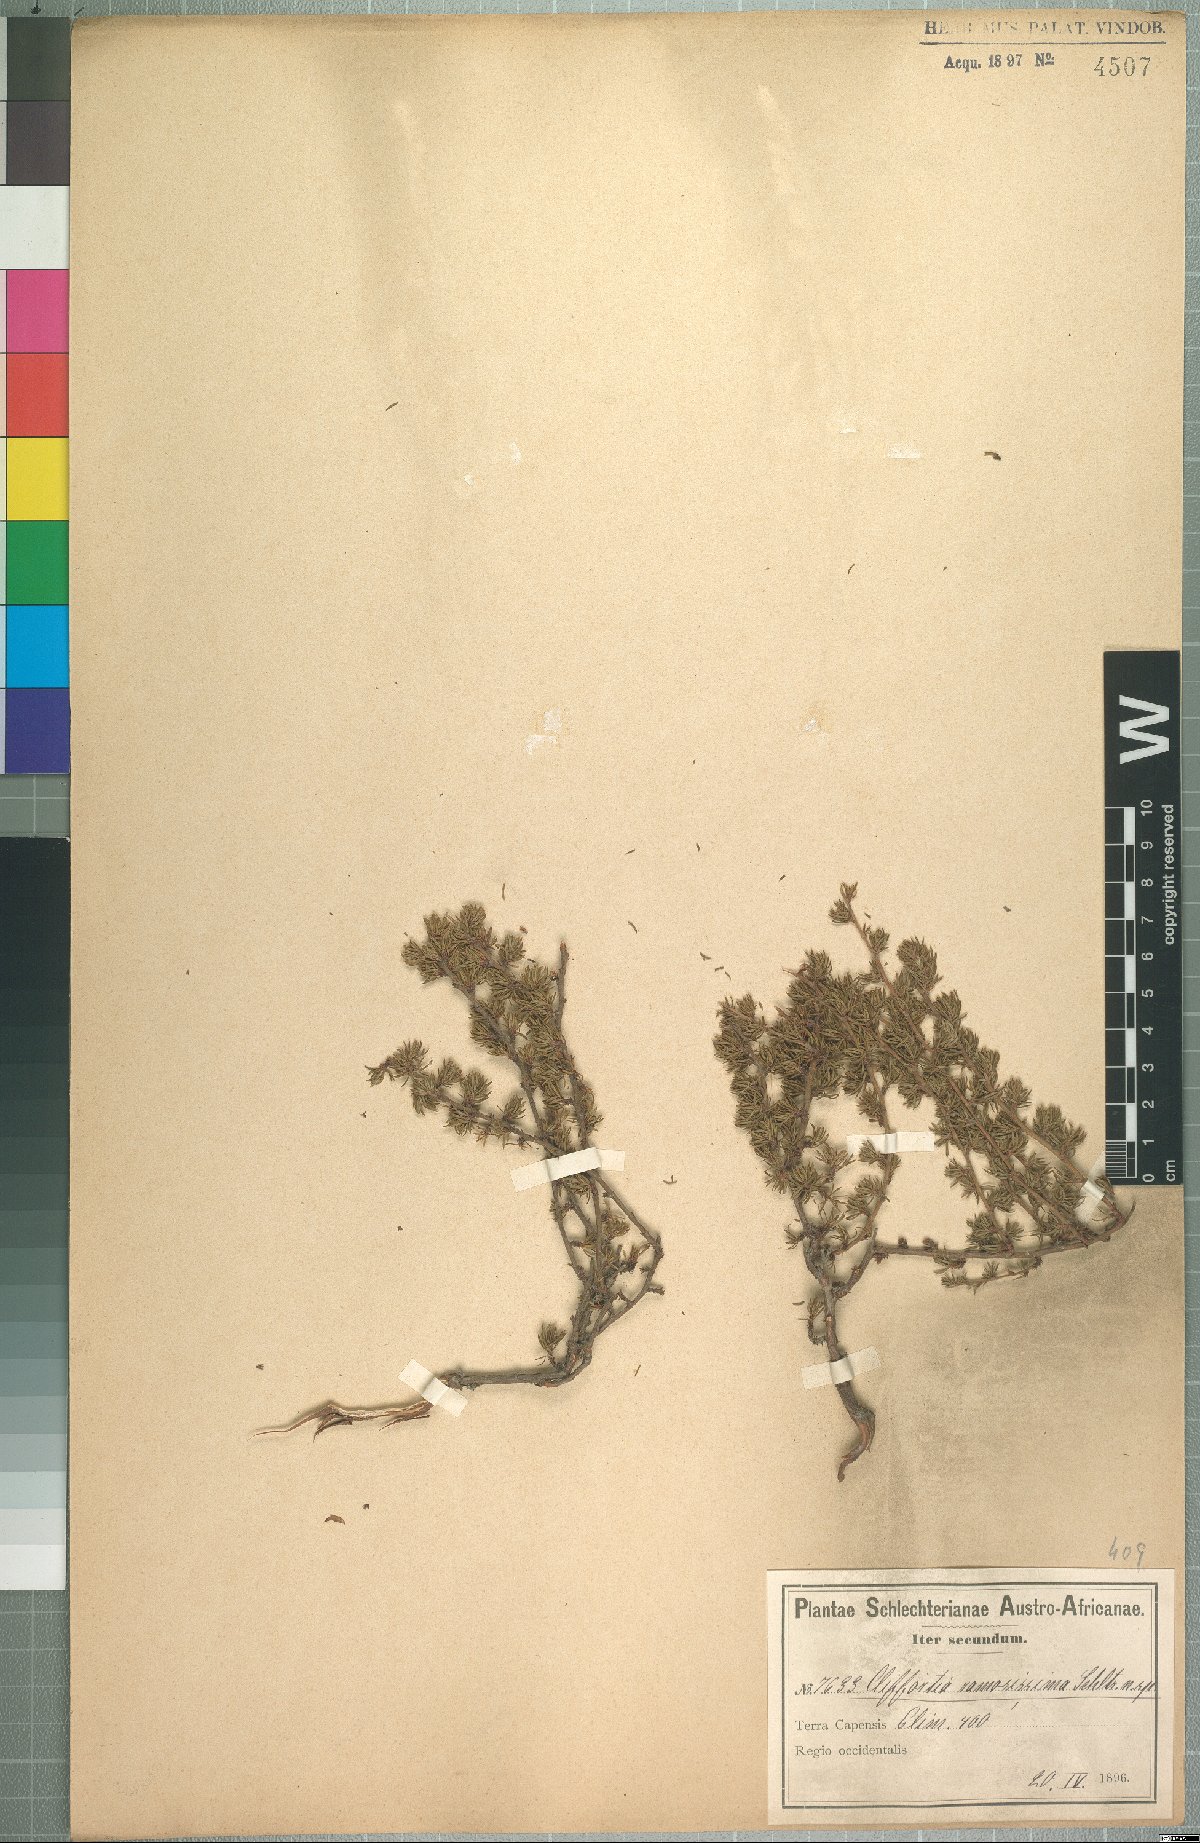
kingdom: Plantae
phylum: Tracheophyta
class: Magnoliopsida
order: Rosales
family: Rosaceae
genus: Cliffortia
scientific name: Cliffortia ramosissima
